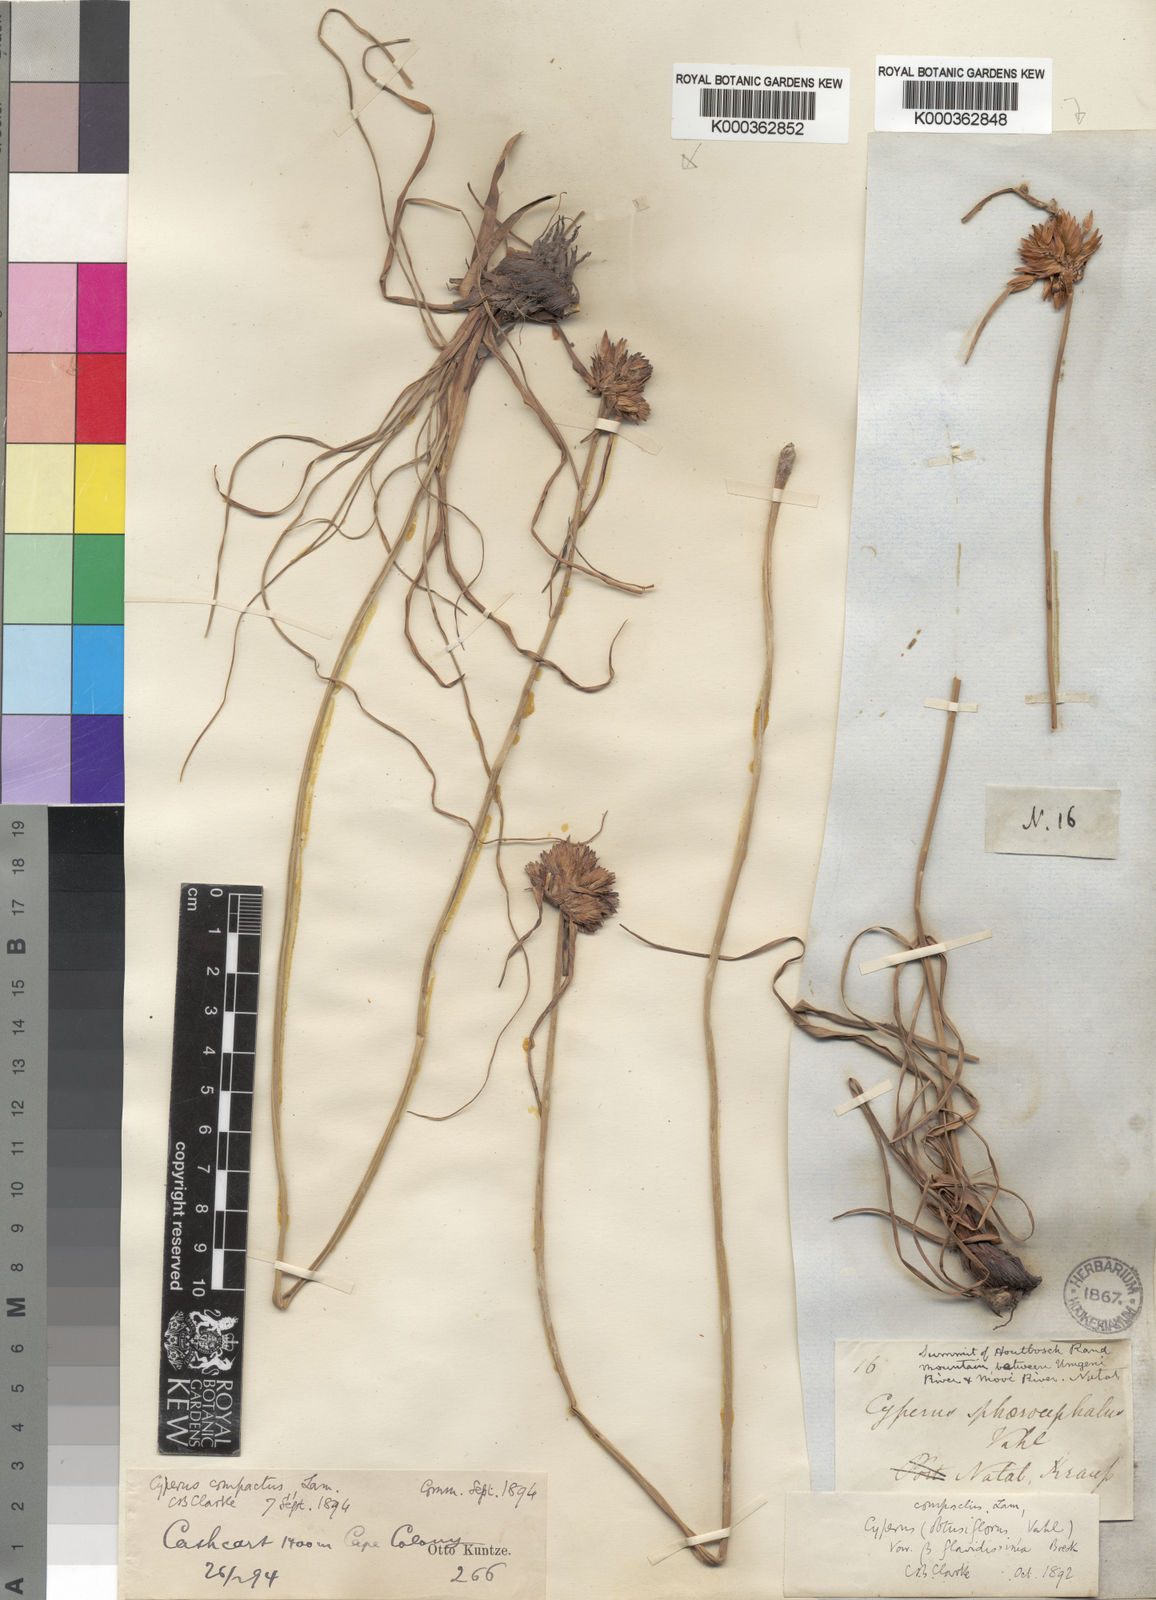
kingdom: Plantae
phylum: Tracheophyta
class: Liliopsida
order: Poales
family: Cyperaceae
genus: Cyperus
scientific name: Cyperus niveus
